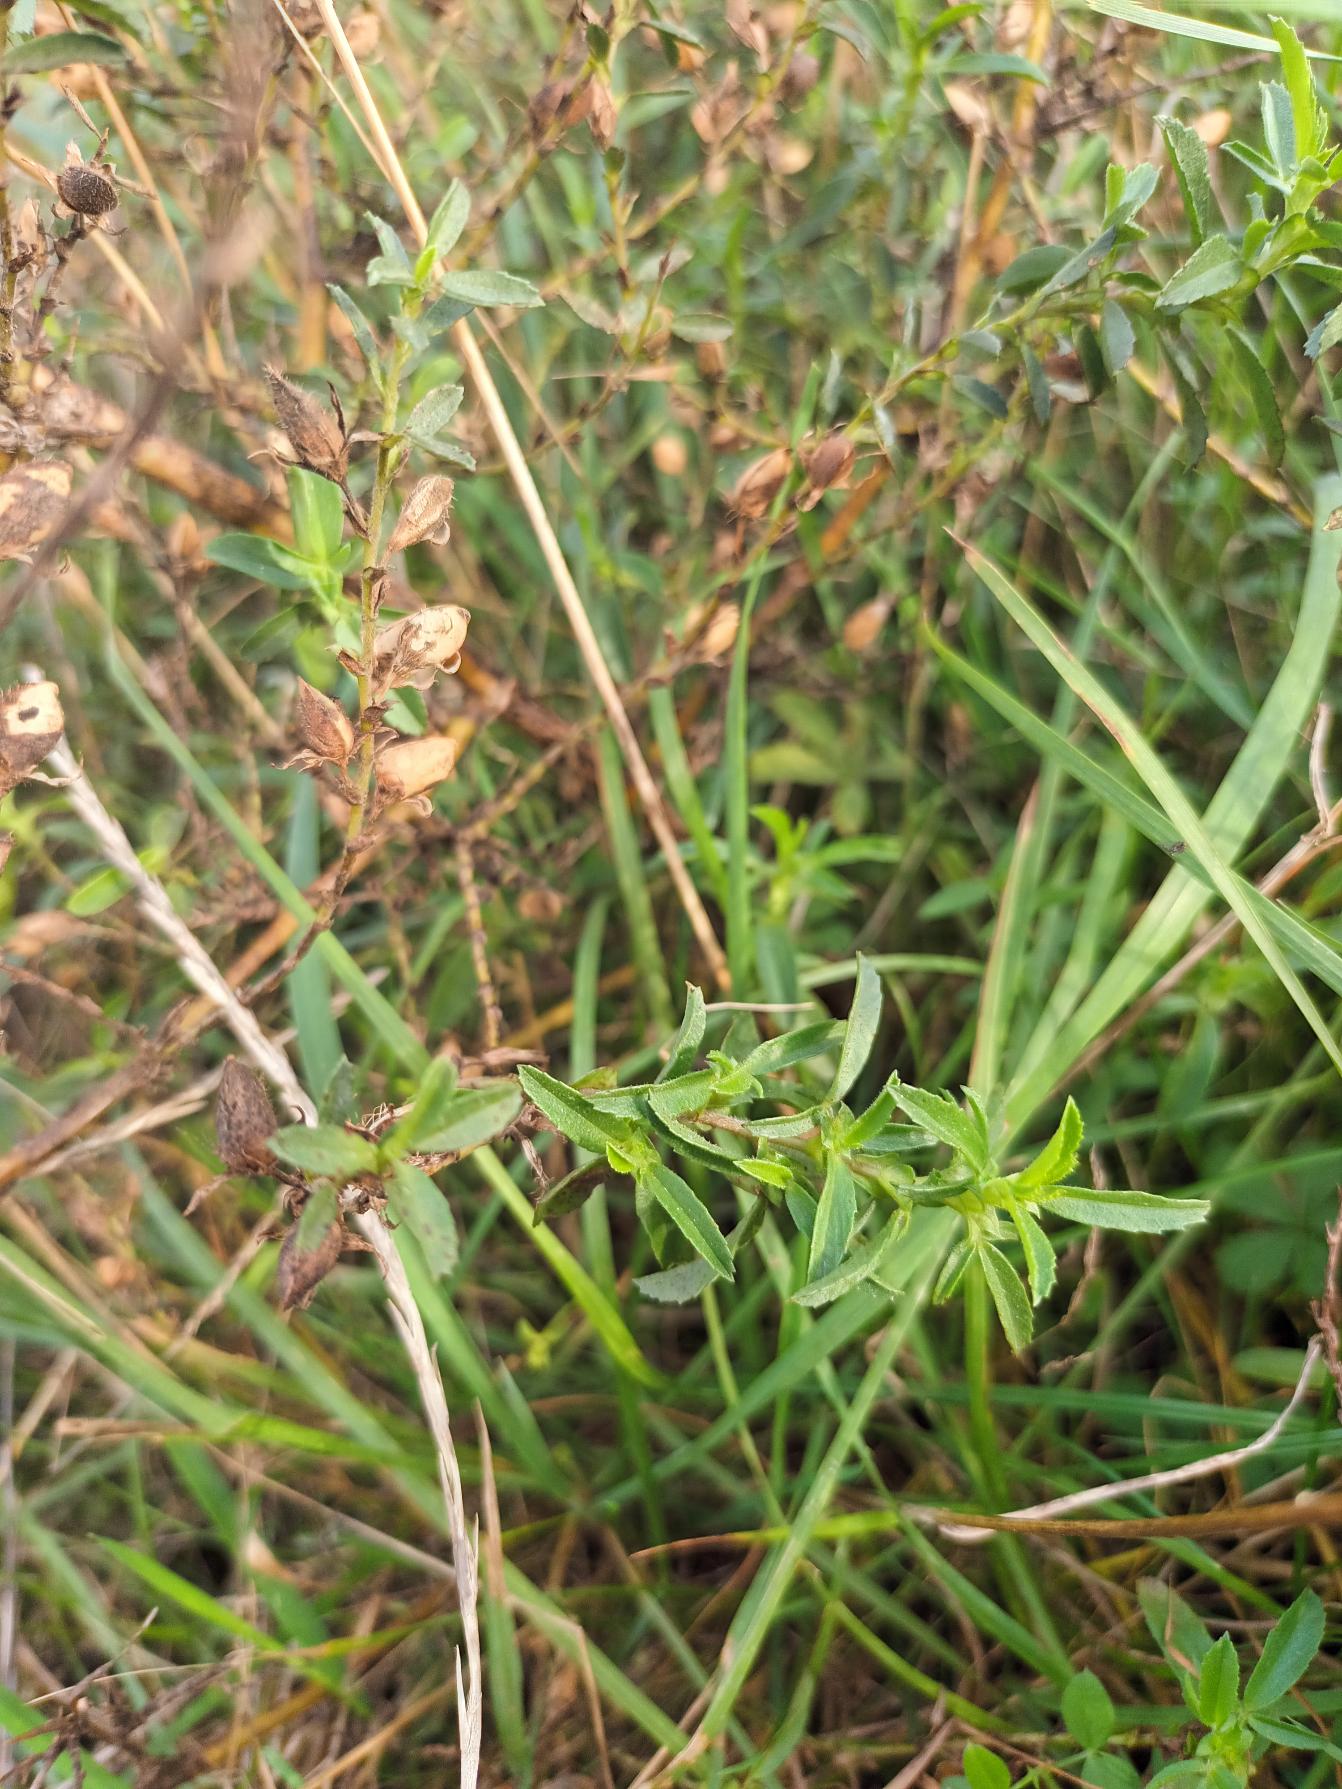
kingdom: Plantae
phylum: Tracheophyta
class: Magnoliopsida
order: Fabales
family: Fabaceae
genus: Ononis
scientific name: Ononis spinosa
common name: Strand-krageklo
